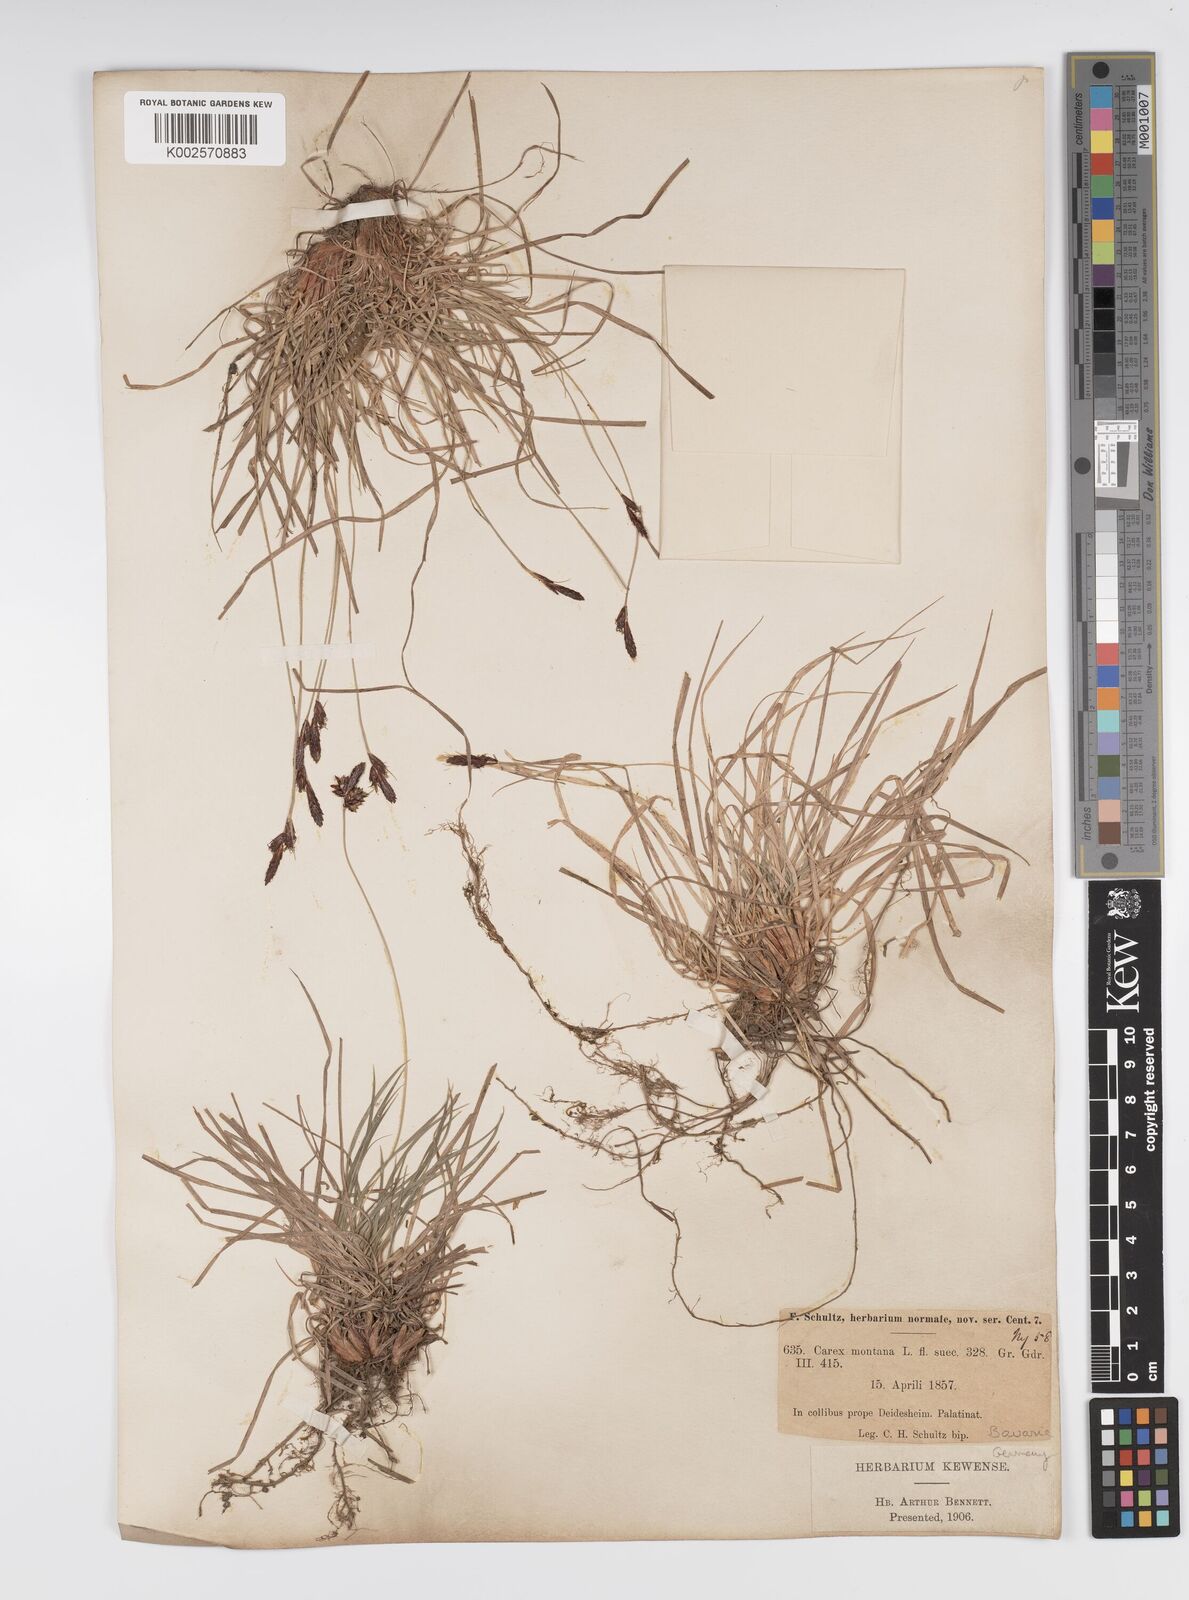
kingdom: Plantae
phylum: Tracheophyta
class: Liliopsida
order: Poales
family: Cyperaceae
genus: Carex
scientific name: Carex montana
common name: Soft-leaved sedge
